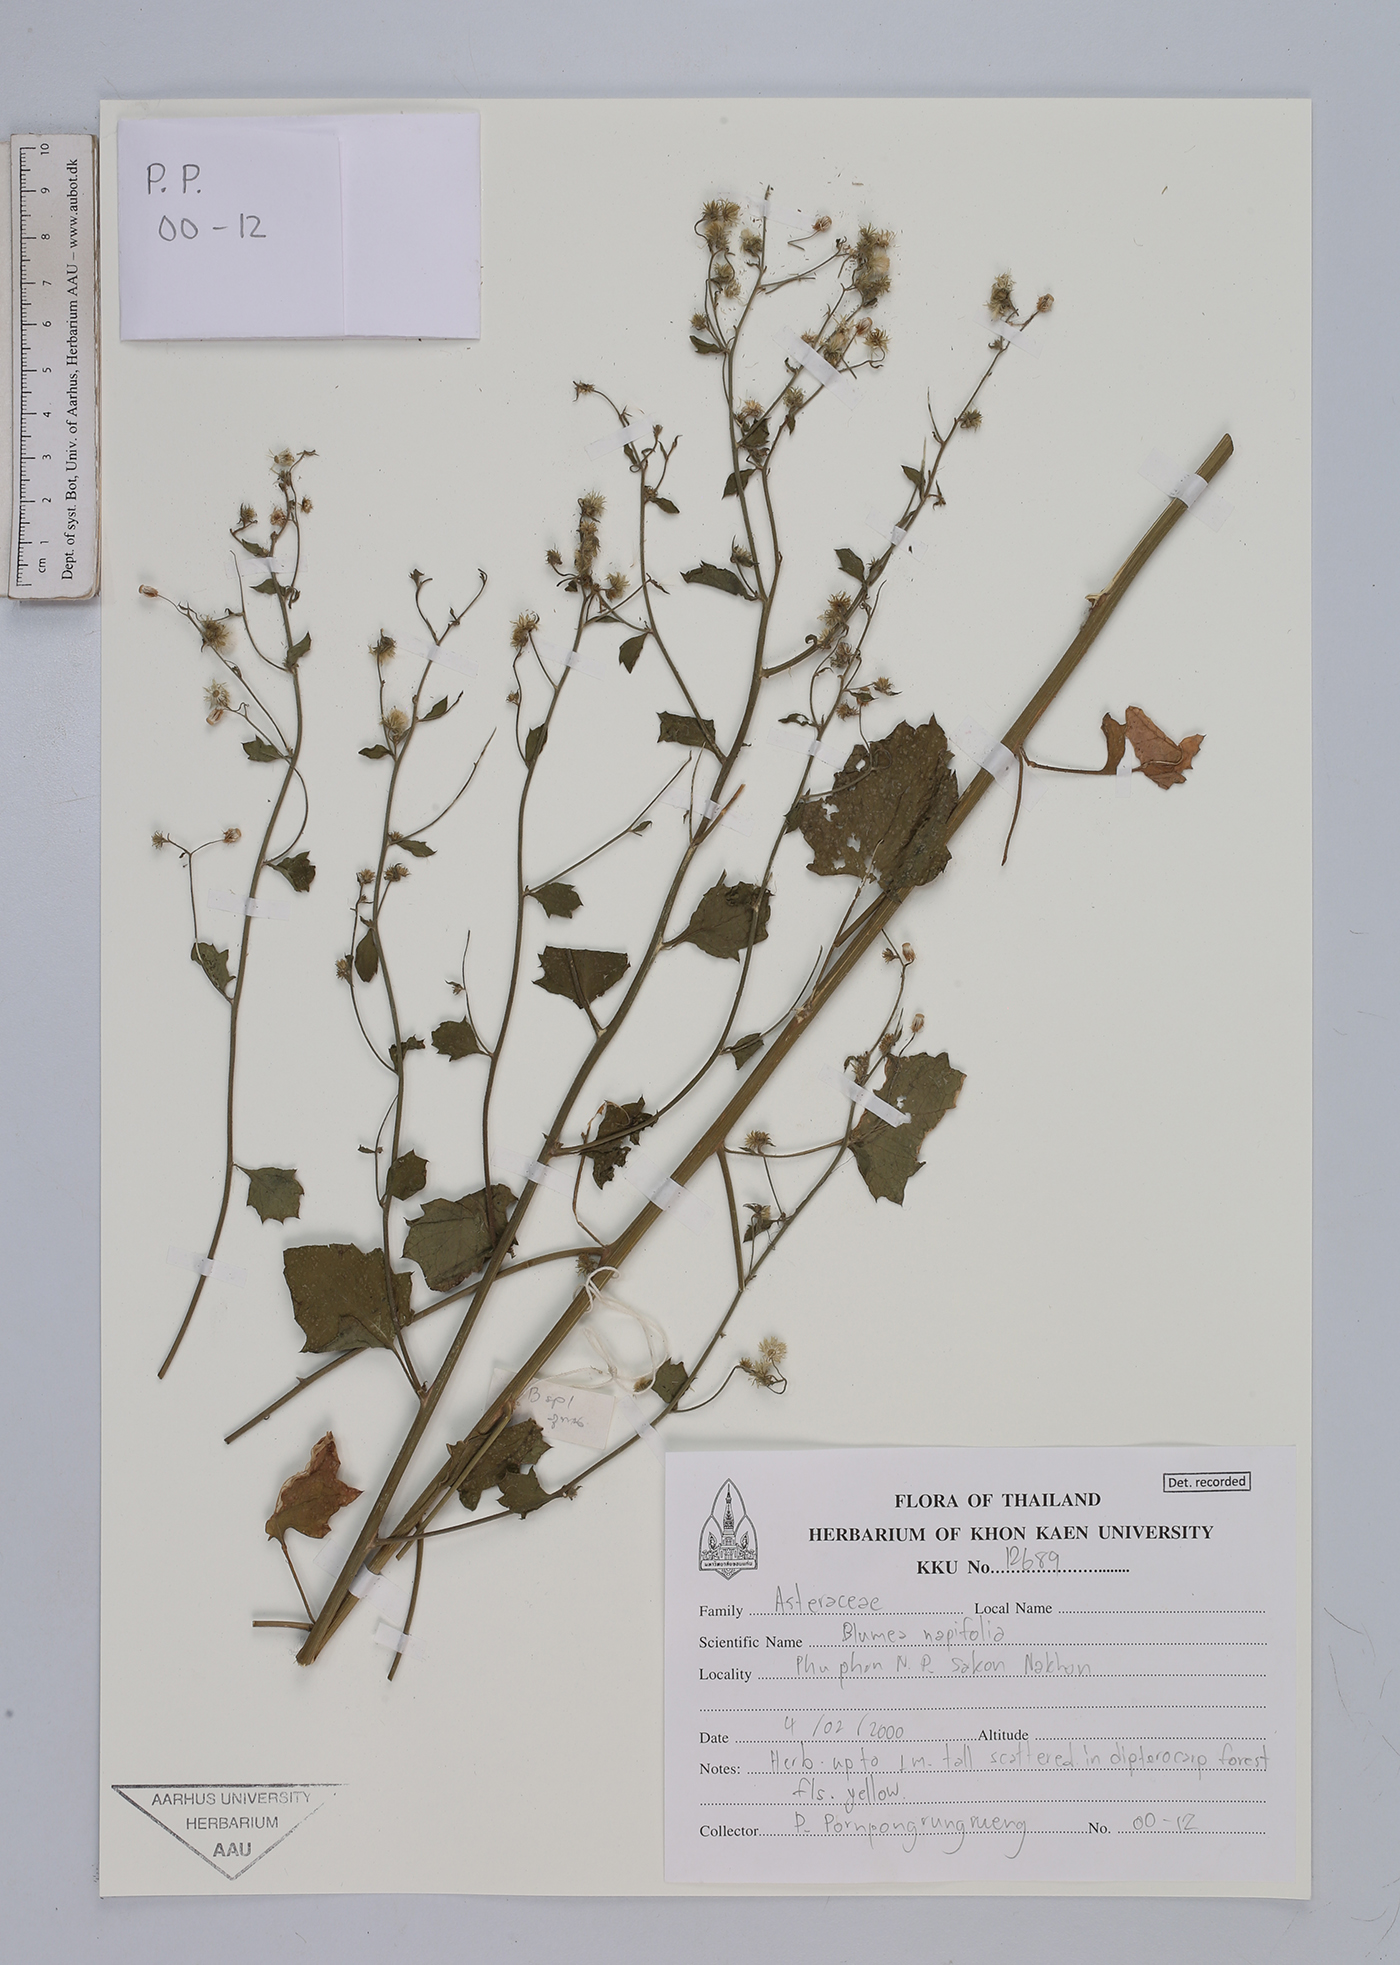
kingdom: Plantae
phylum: Tracheophyta
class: Magnoliopsida
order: Asterales
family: Asteraceae
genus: Blumea
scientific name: Blumea napifolia
